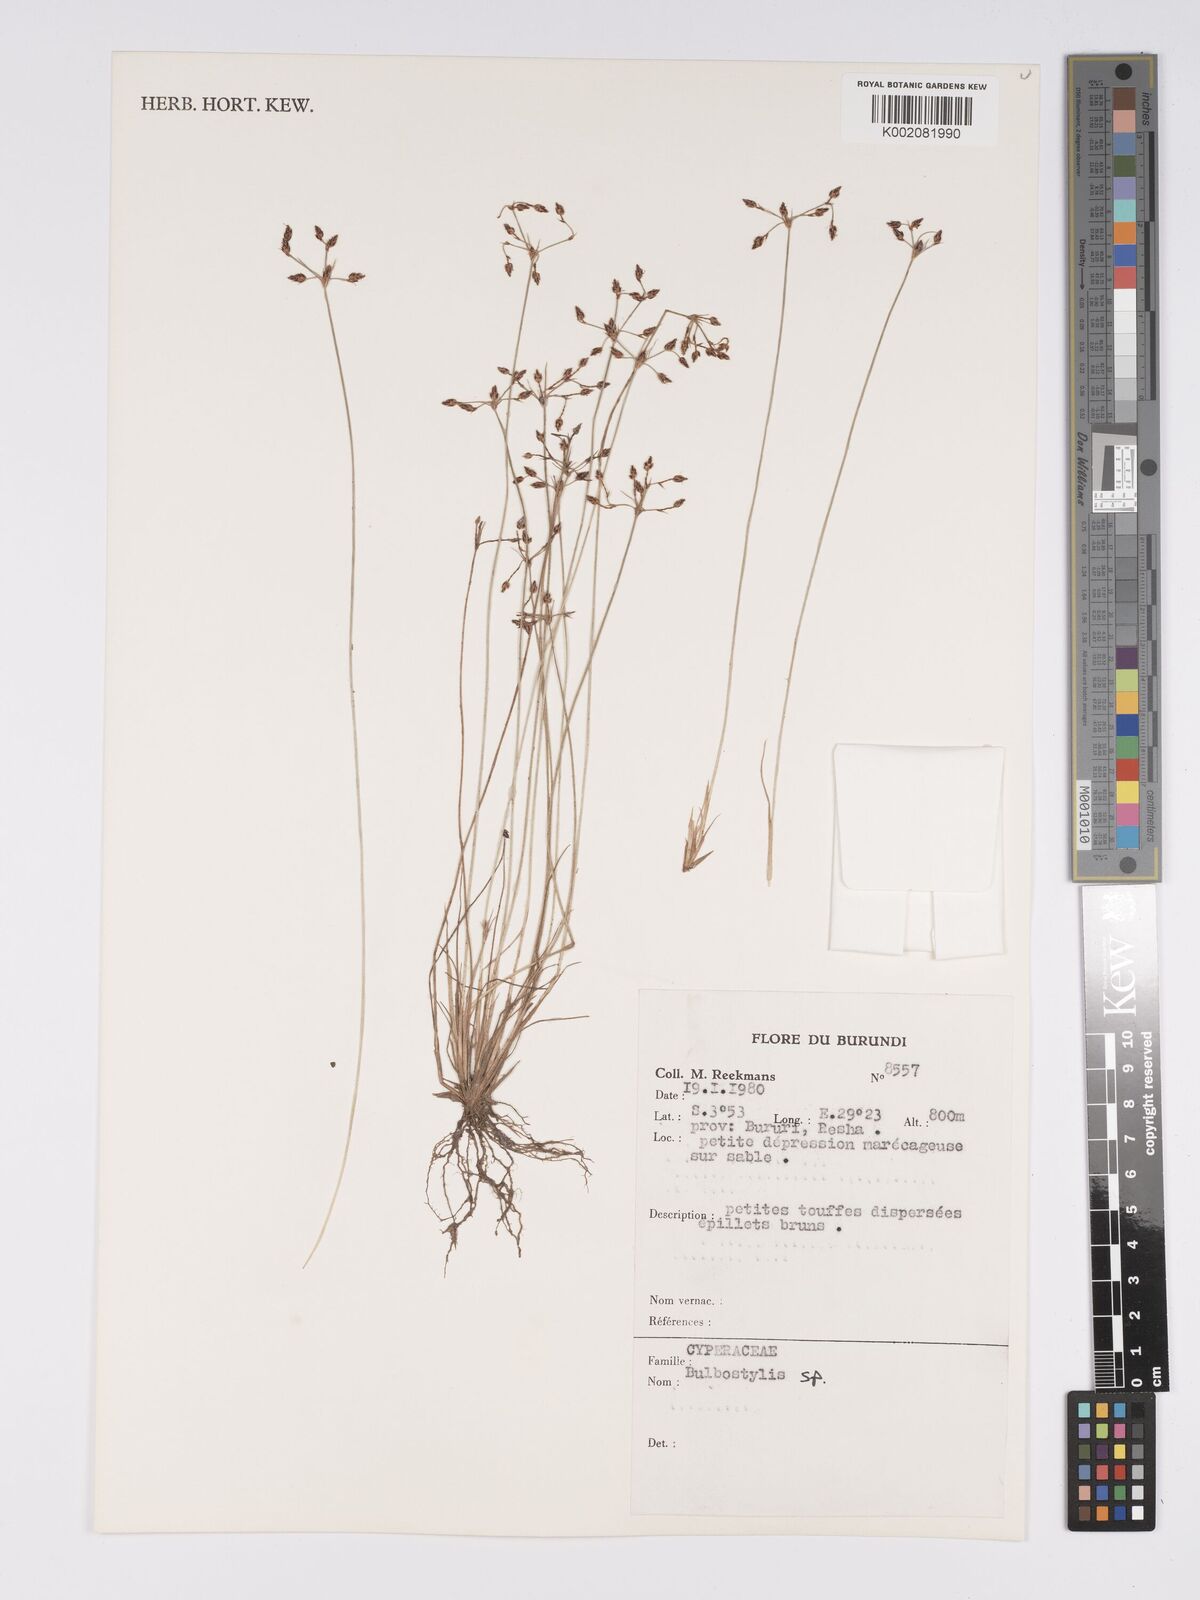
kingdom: Plantae
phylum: Tracheophyta
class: Magnoliopsida
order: Asterales
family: Asteraceae
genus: Bulbostylis
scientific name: Bulbostylis
